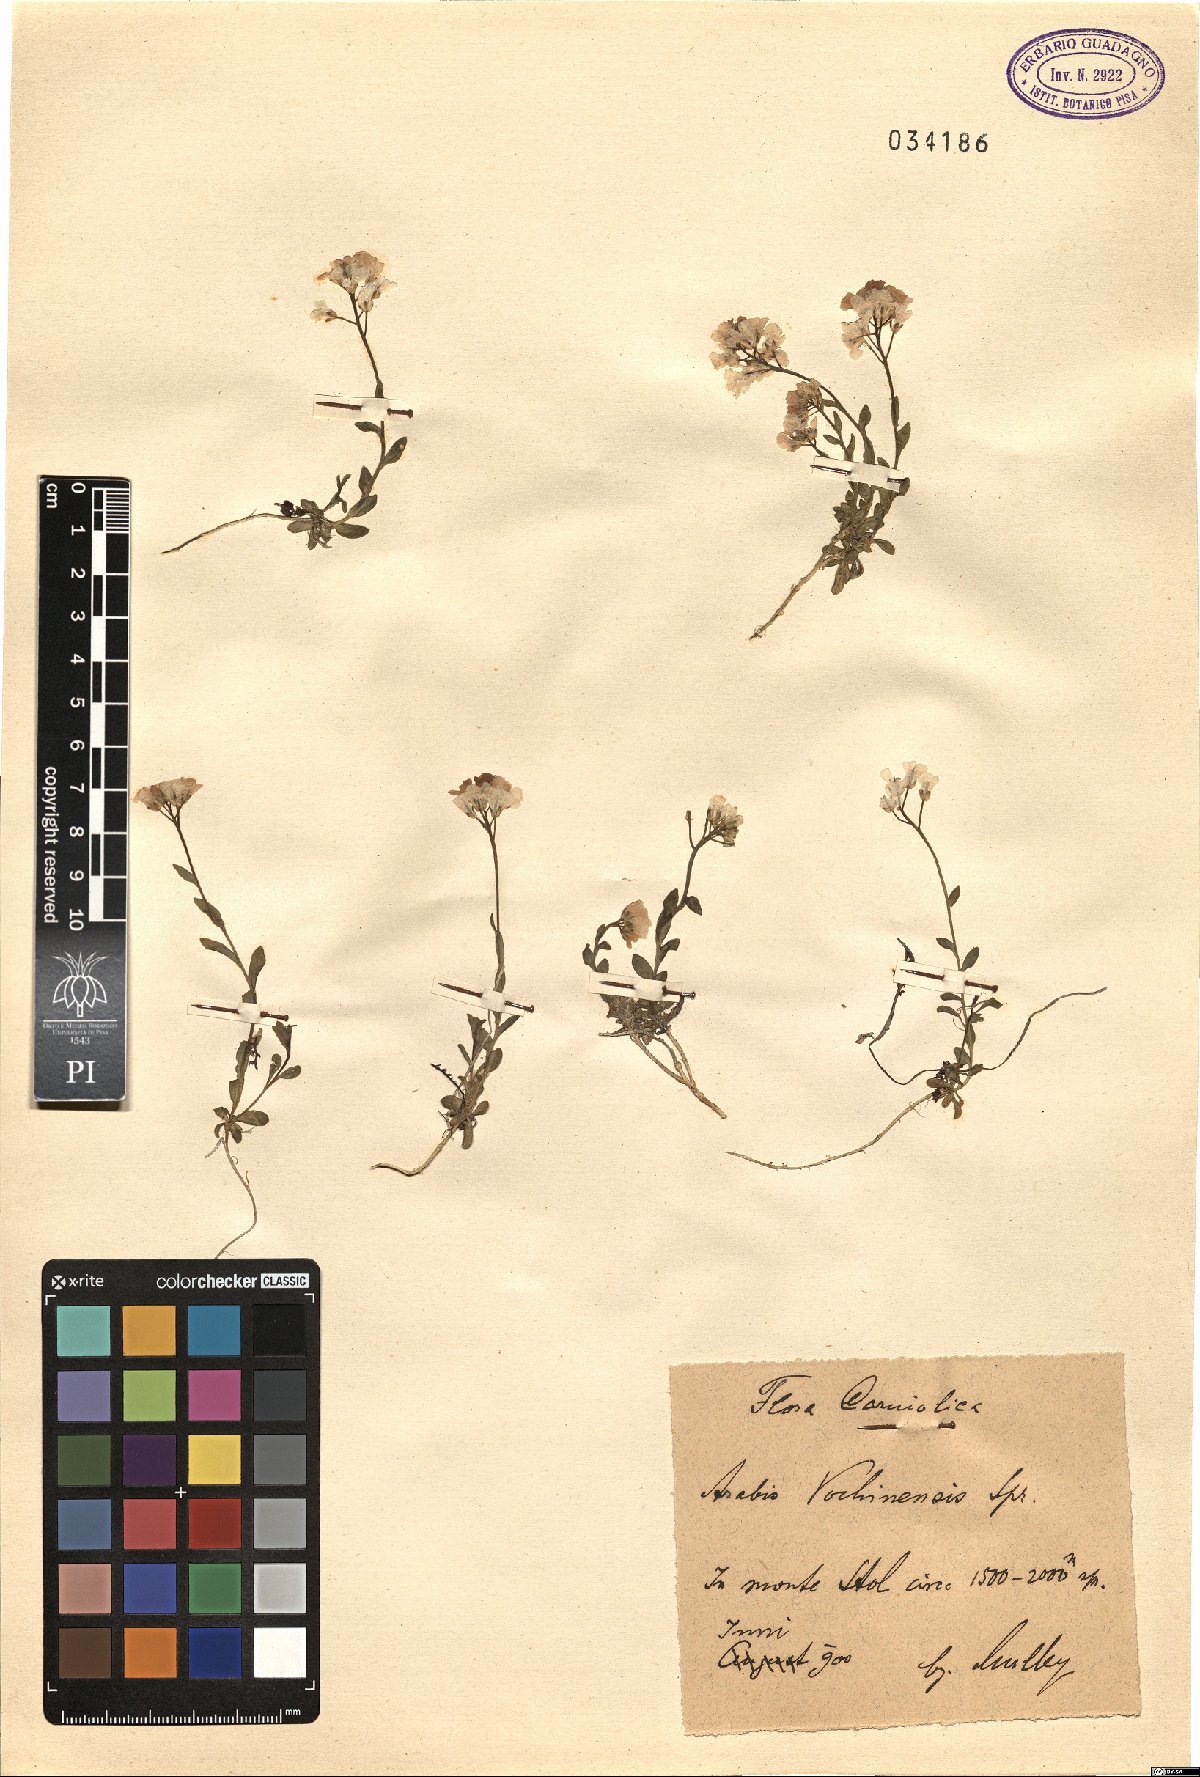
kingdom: Plantae
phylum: Tracheophyta
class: Magnoliopsida
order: Brassicales
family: Brassicaceae
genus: Arabis
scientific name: Arabis vochinensis
